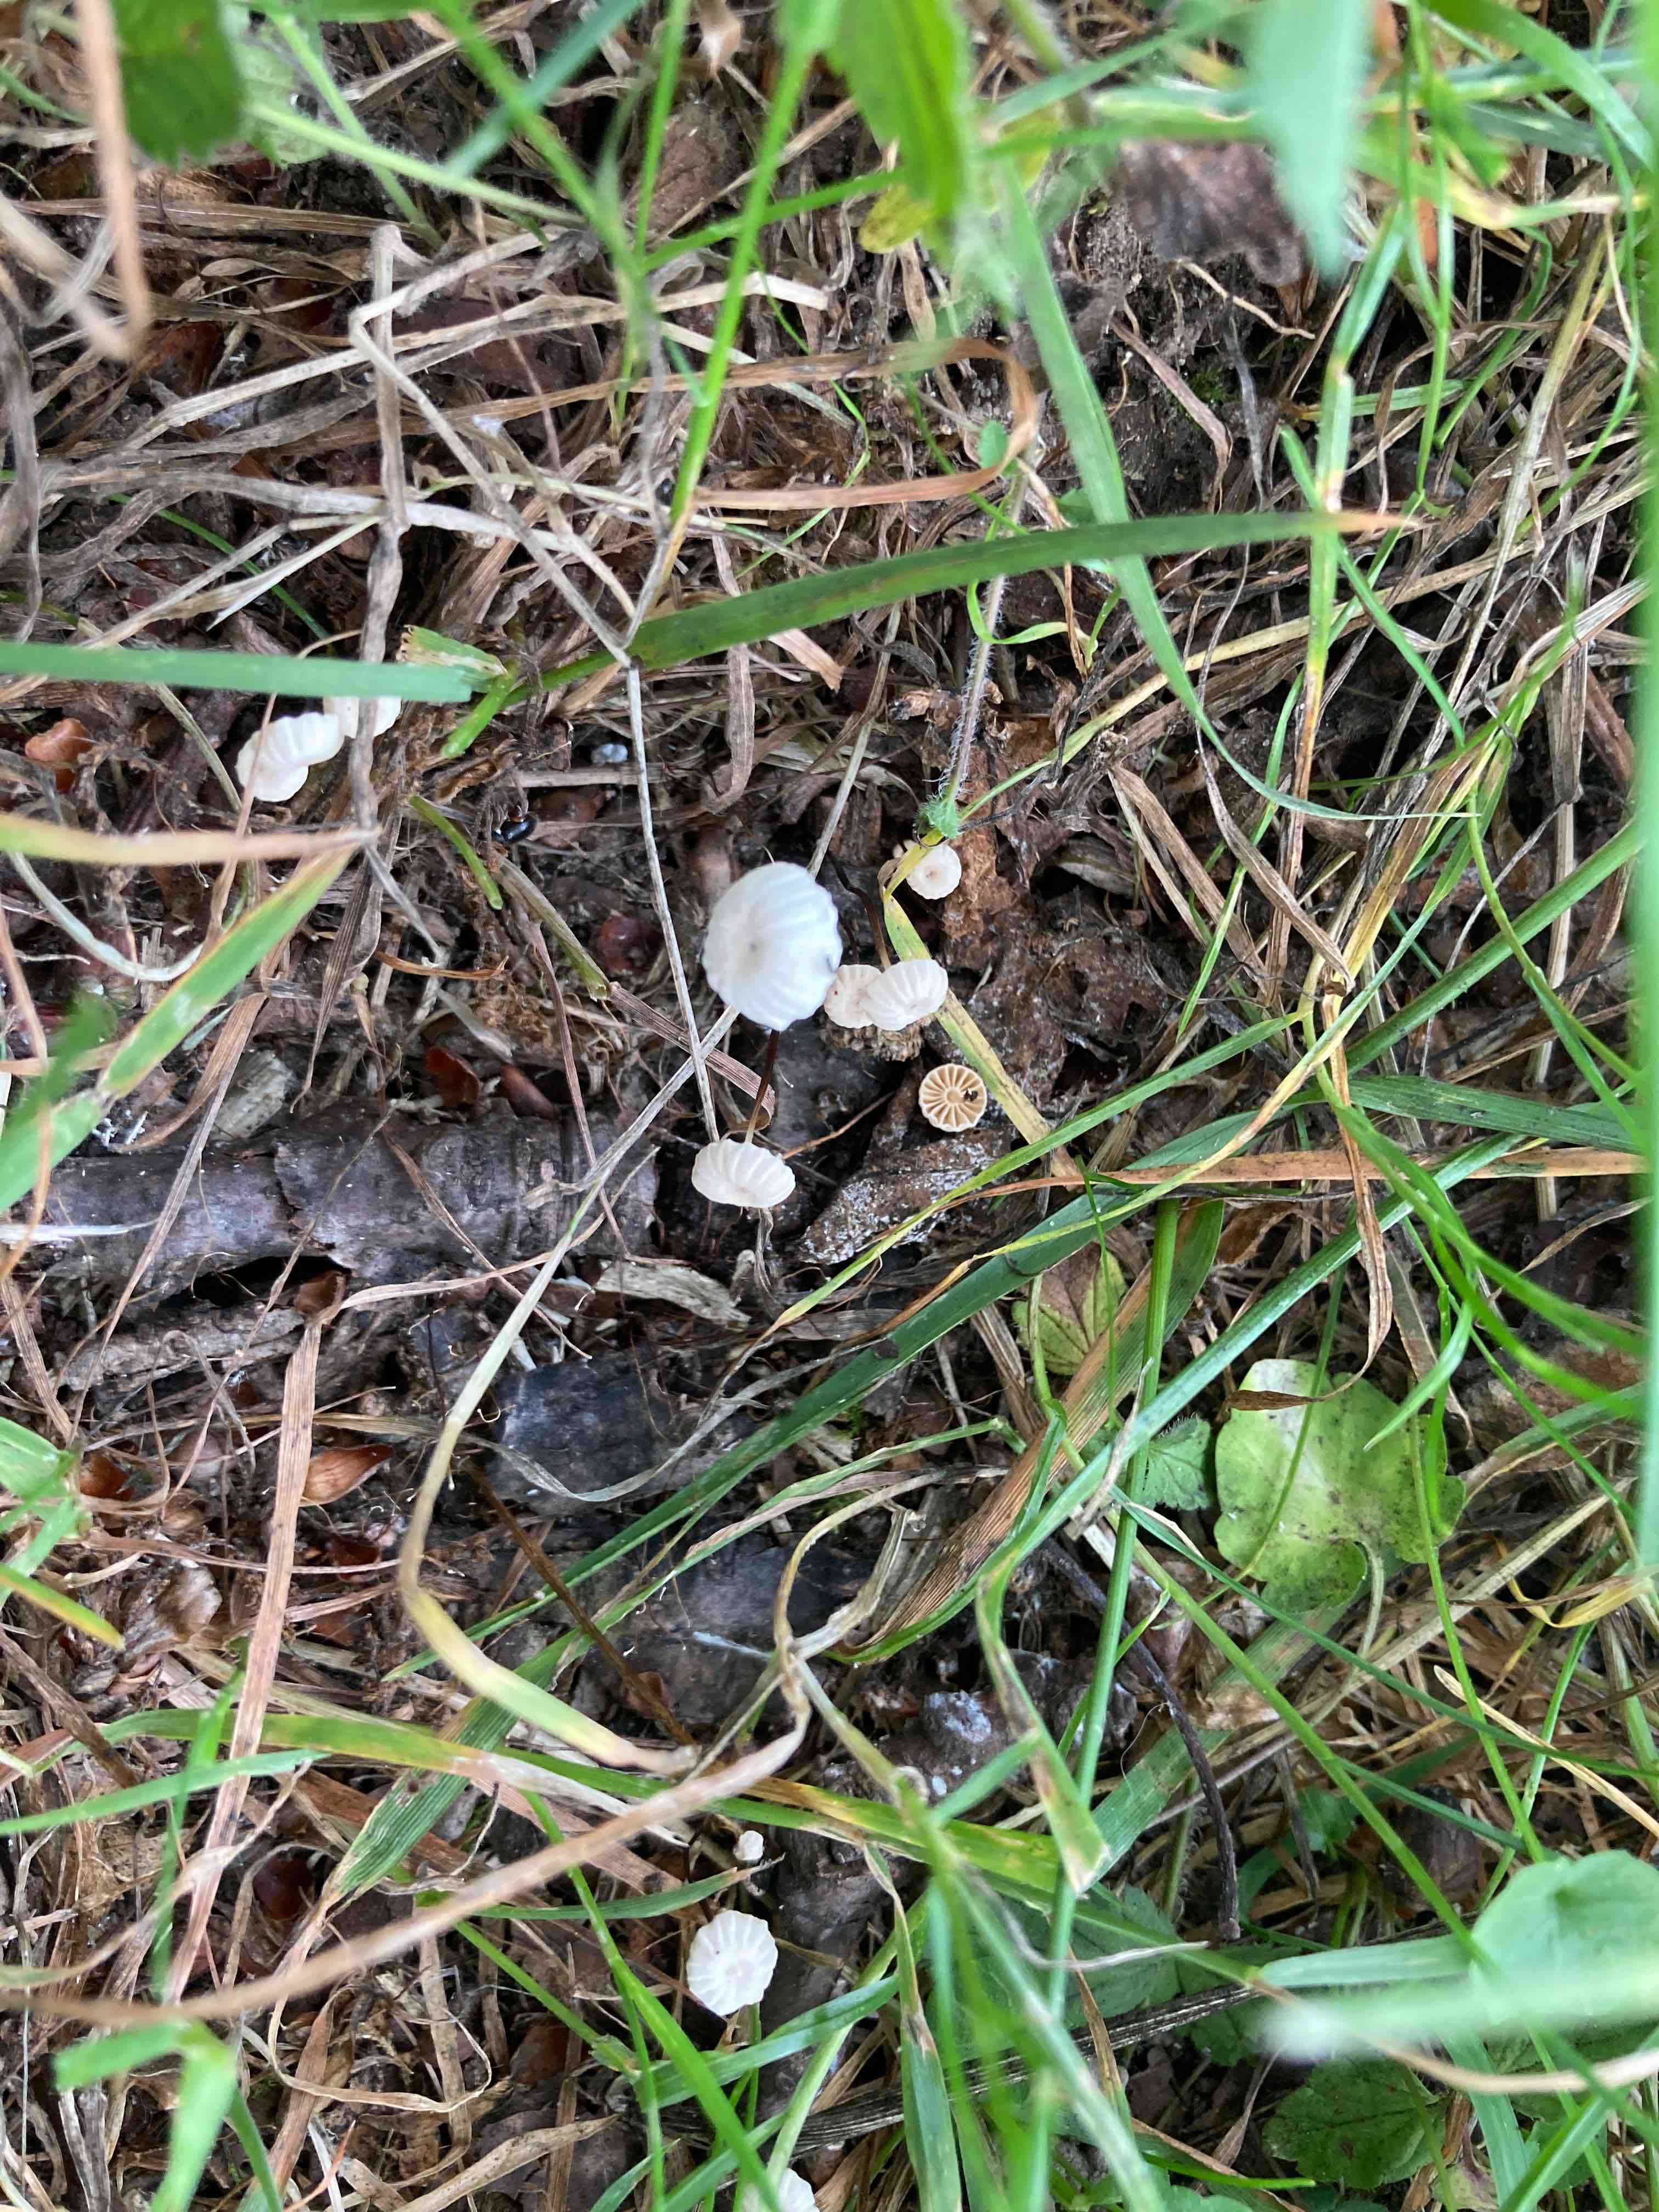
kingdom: Fungi
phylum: Basidiomycota
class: Agaricomycetes
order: Agaricales
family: Marasmiaceae
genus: Marasmius
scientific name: Marasmius rotula
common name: hjul-bruskhat
